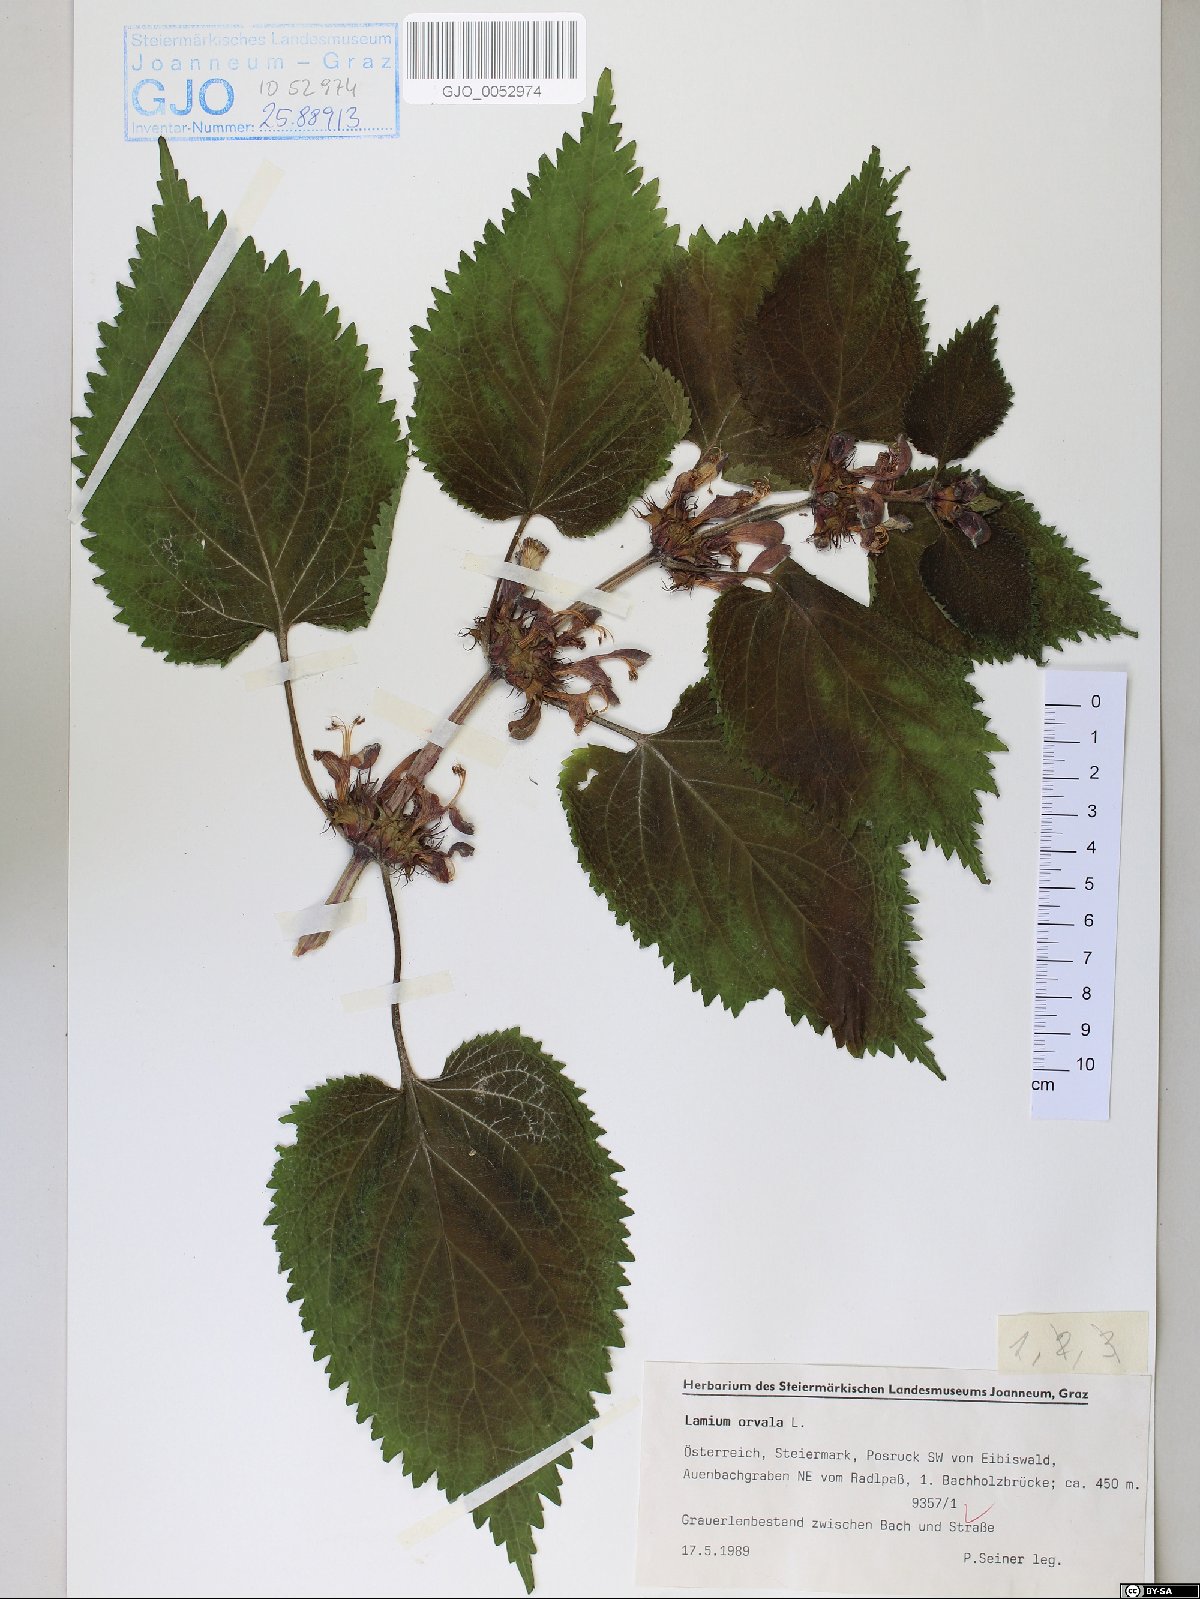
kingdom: Plantae
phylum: Tracheophyta
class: Magnoliopsida
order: Lamiales
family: Lamiaceae
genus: Lamium
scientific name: Lamium orvala
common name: Balm-leaved archangel
